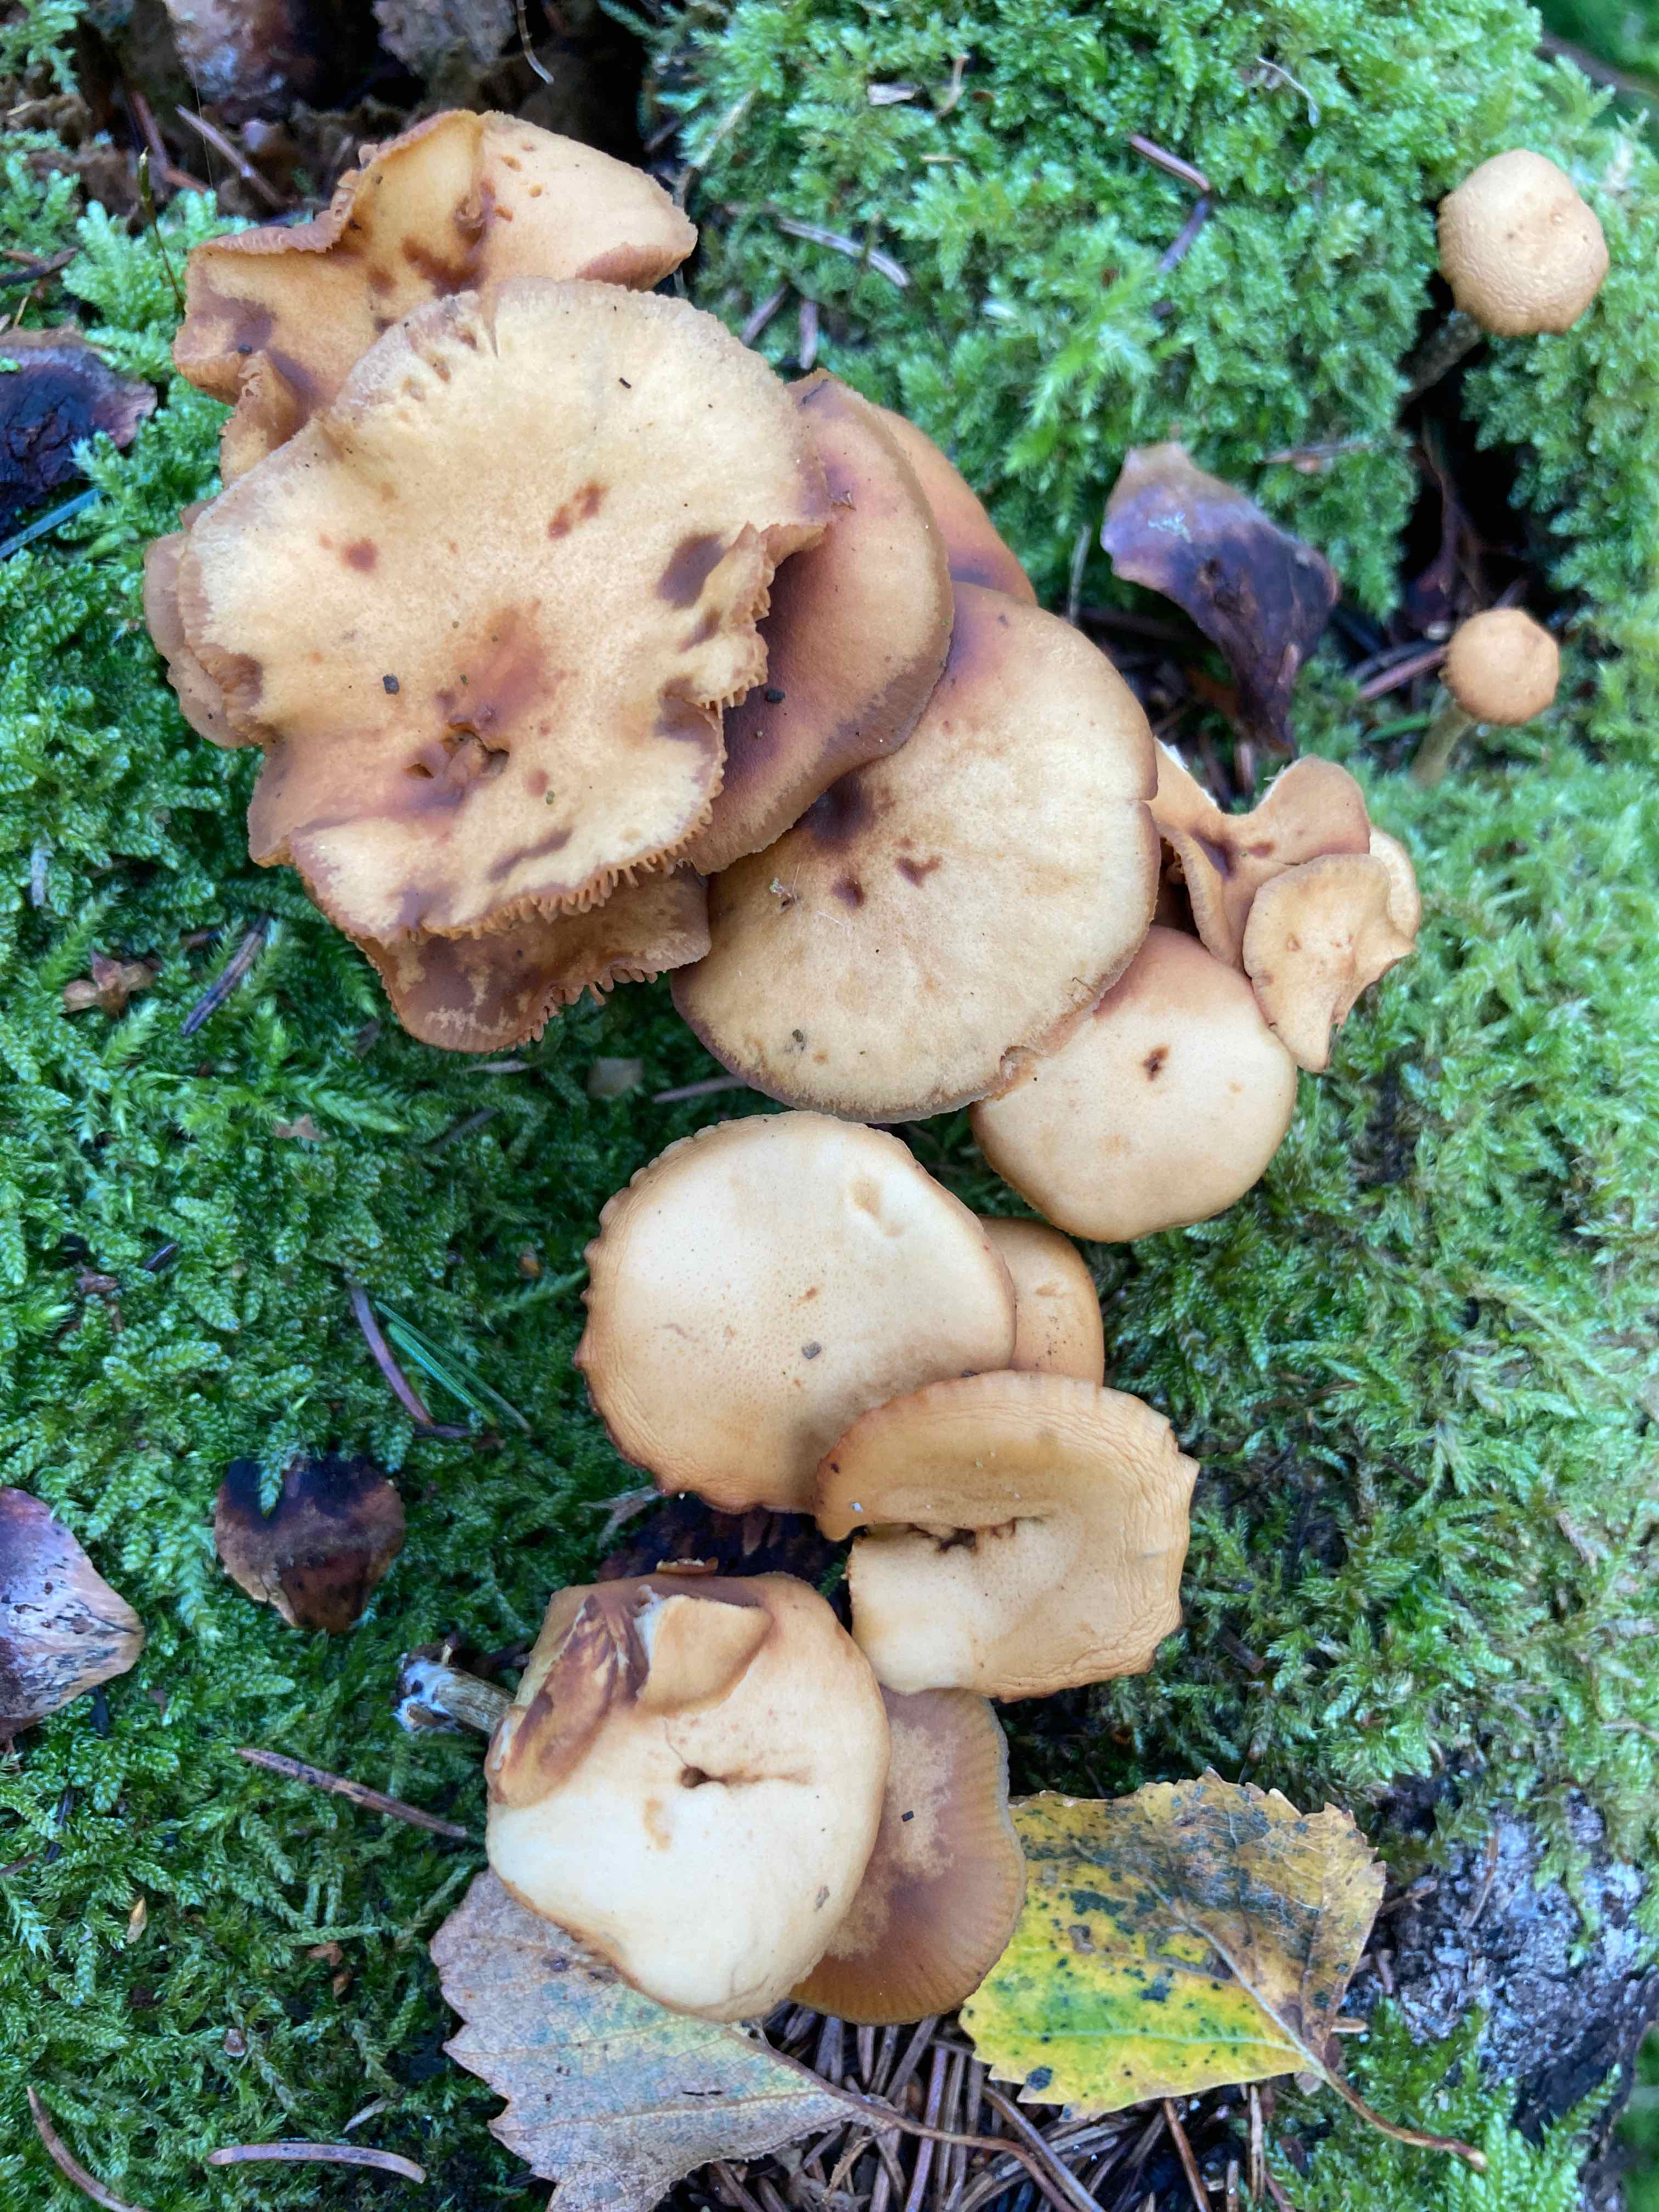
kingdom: Fungi
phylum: Basidiomycota
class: Agaricomycetes
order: Agaricales
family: Hymenogastraceae
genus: Galerina
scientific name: Galerina marginata
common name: randbæltet hjelmhat
